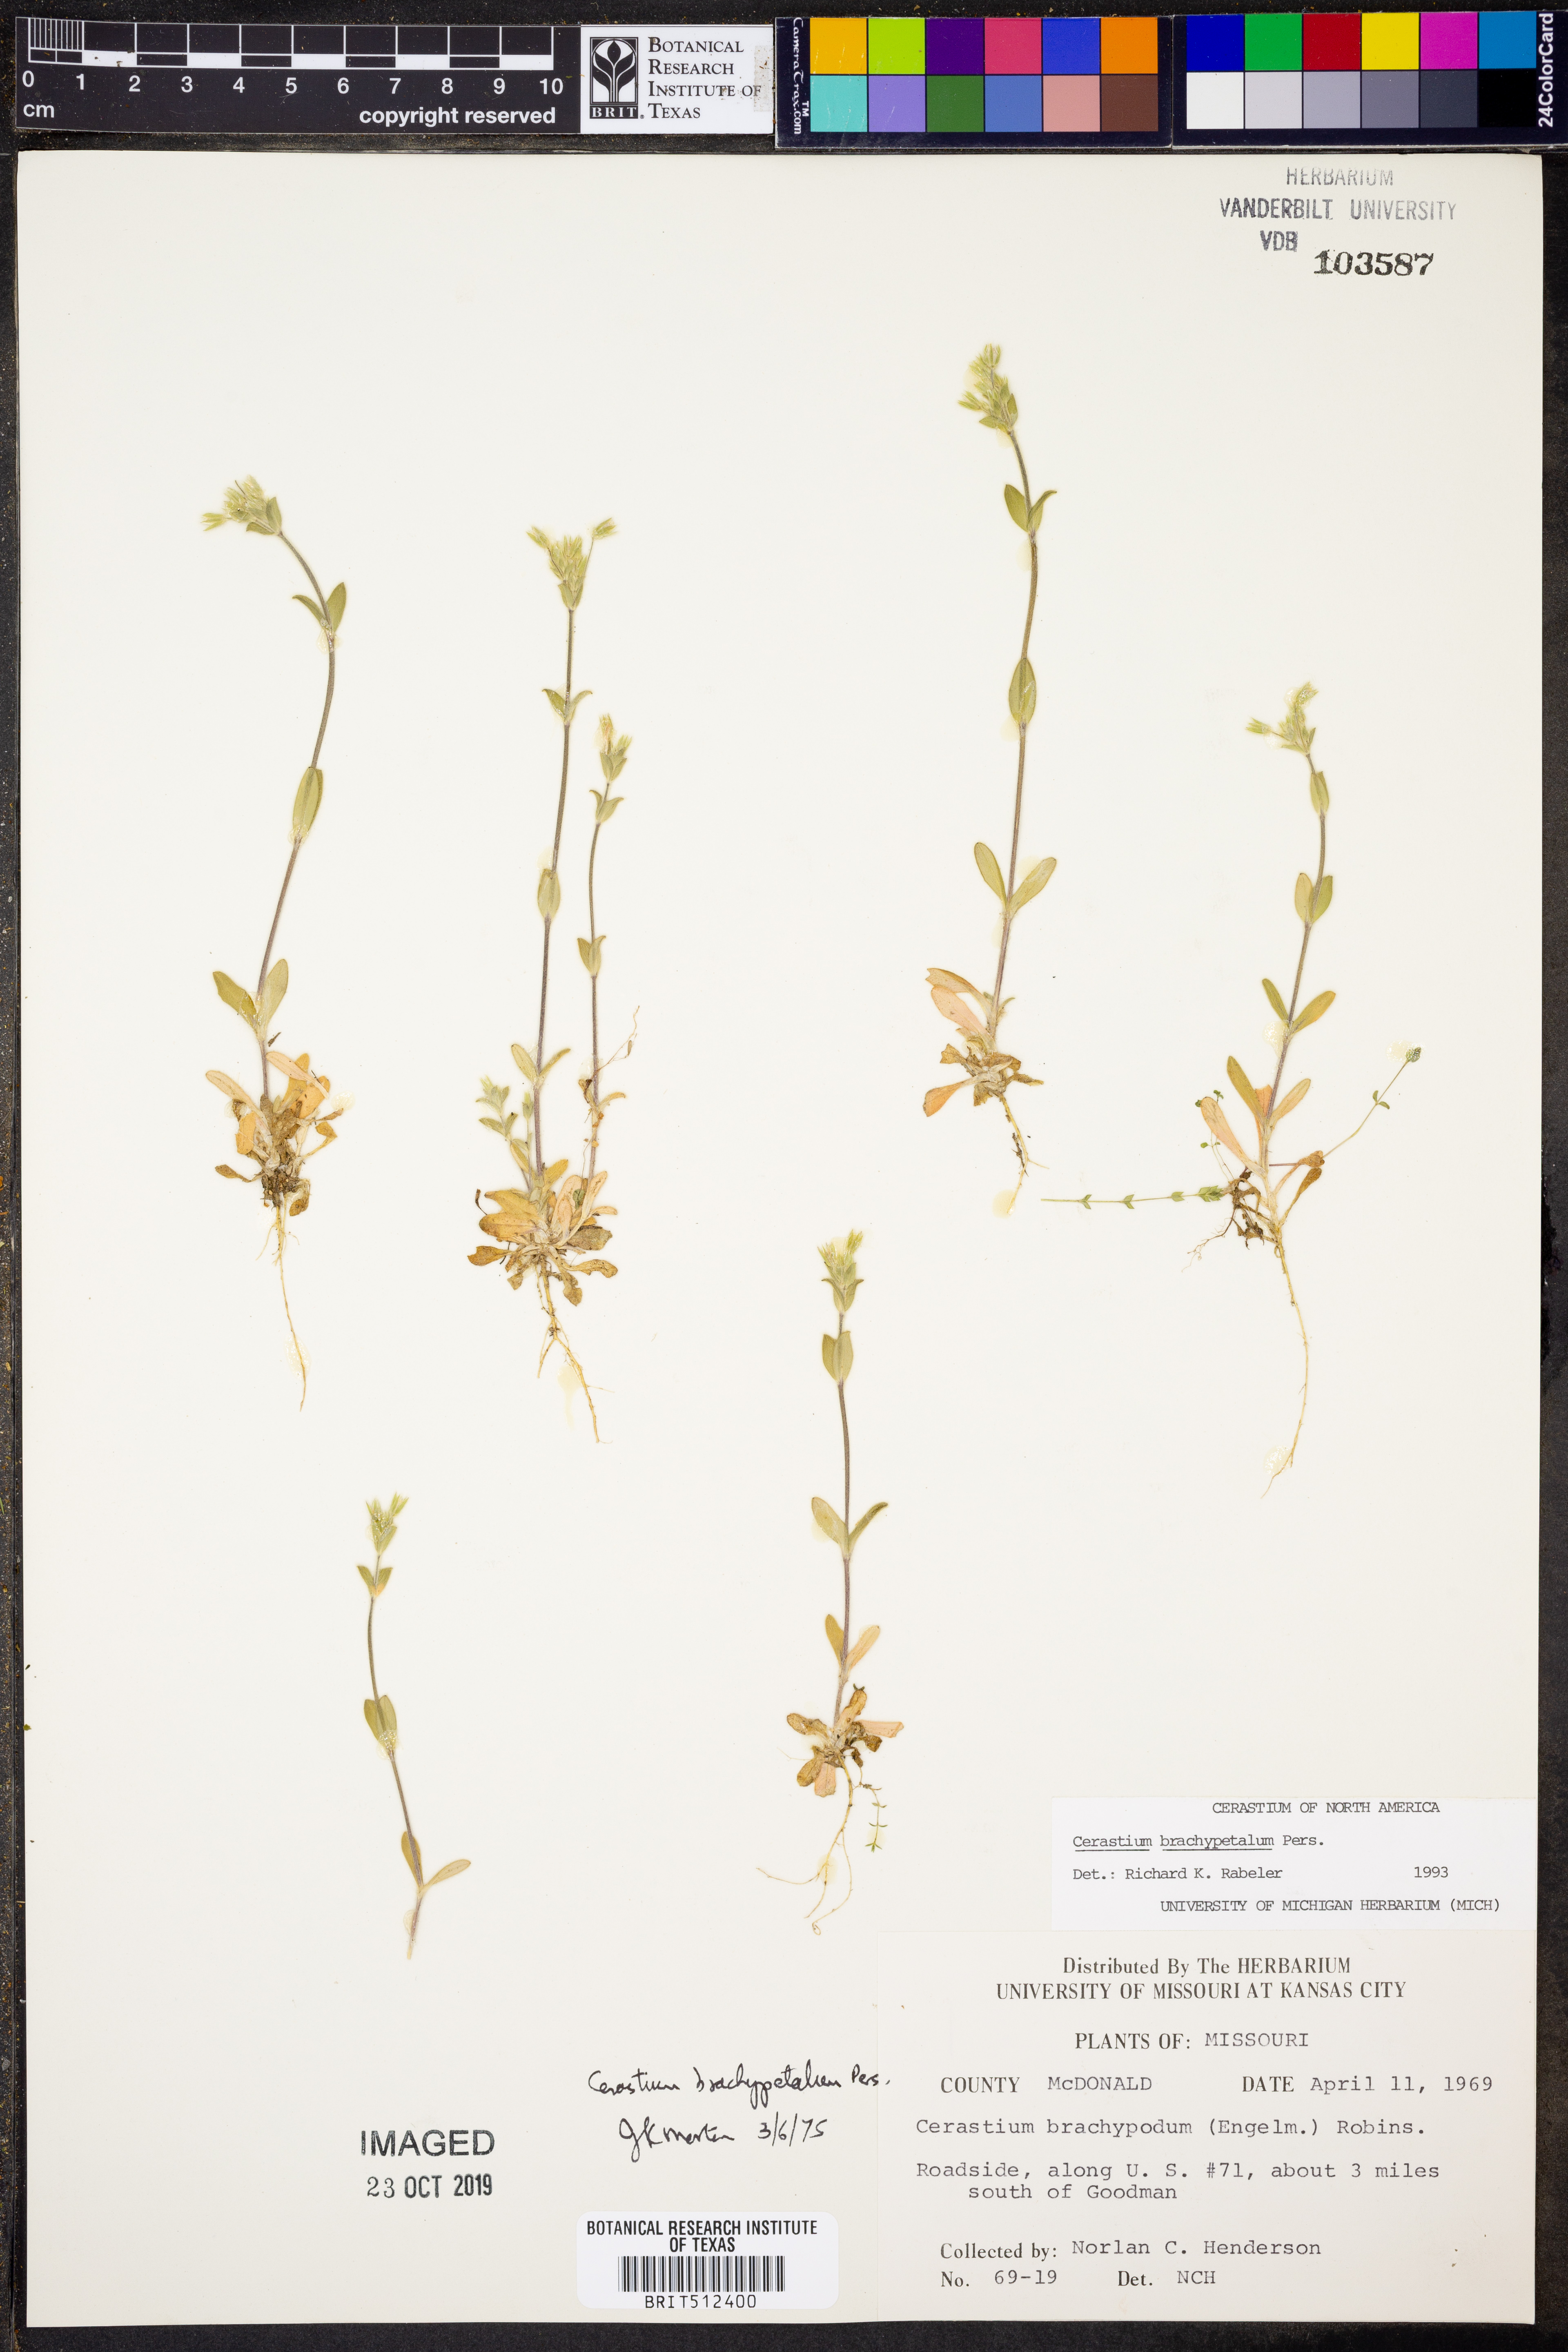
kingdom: Plantae
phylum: Tracheophyta
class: Magnoliopsida
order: Caryophyllales
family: Caryophyllaceae
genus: Cerastium
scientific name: Cerastium brachypetalum
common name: Grey mouse-ear
